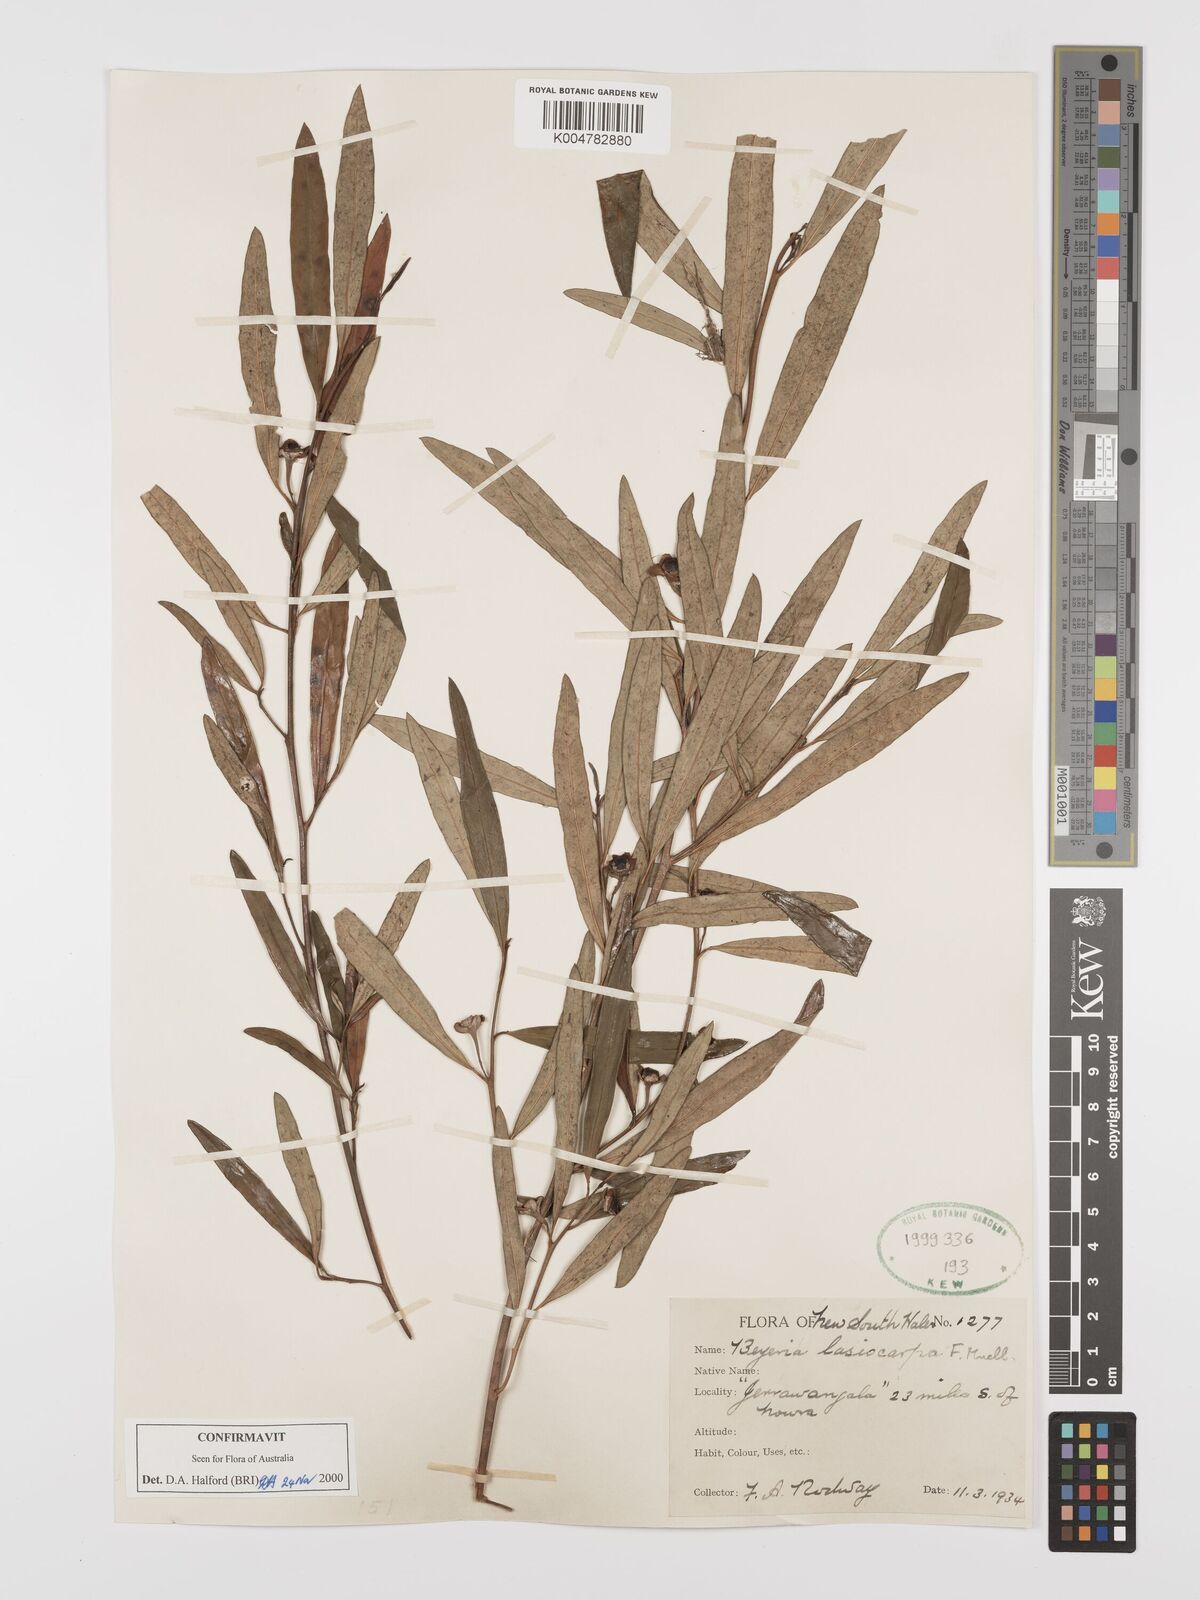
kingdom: Plantae
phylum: Tracheophyta
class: Magnoliopsida
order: Malpighiales
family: Euphorbiaceae
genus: Beyeria
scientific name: Beyeria lasiocarpa
